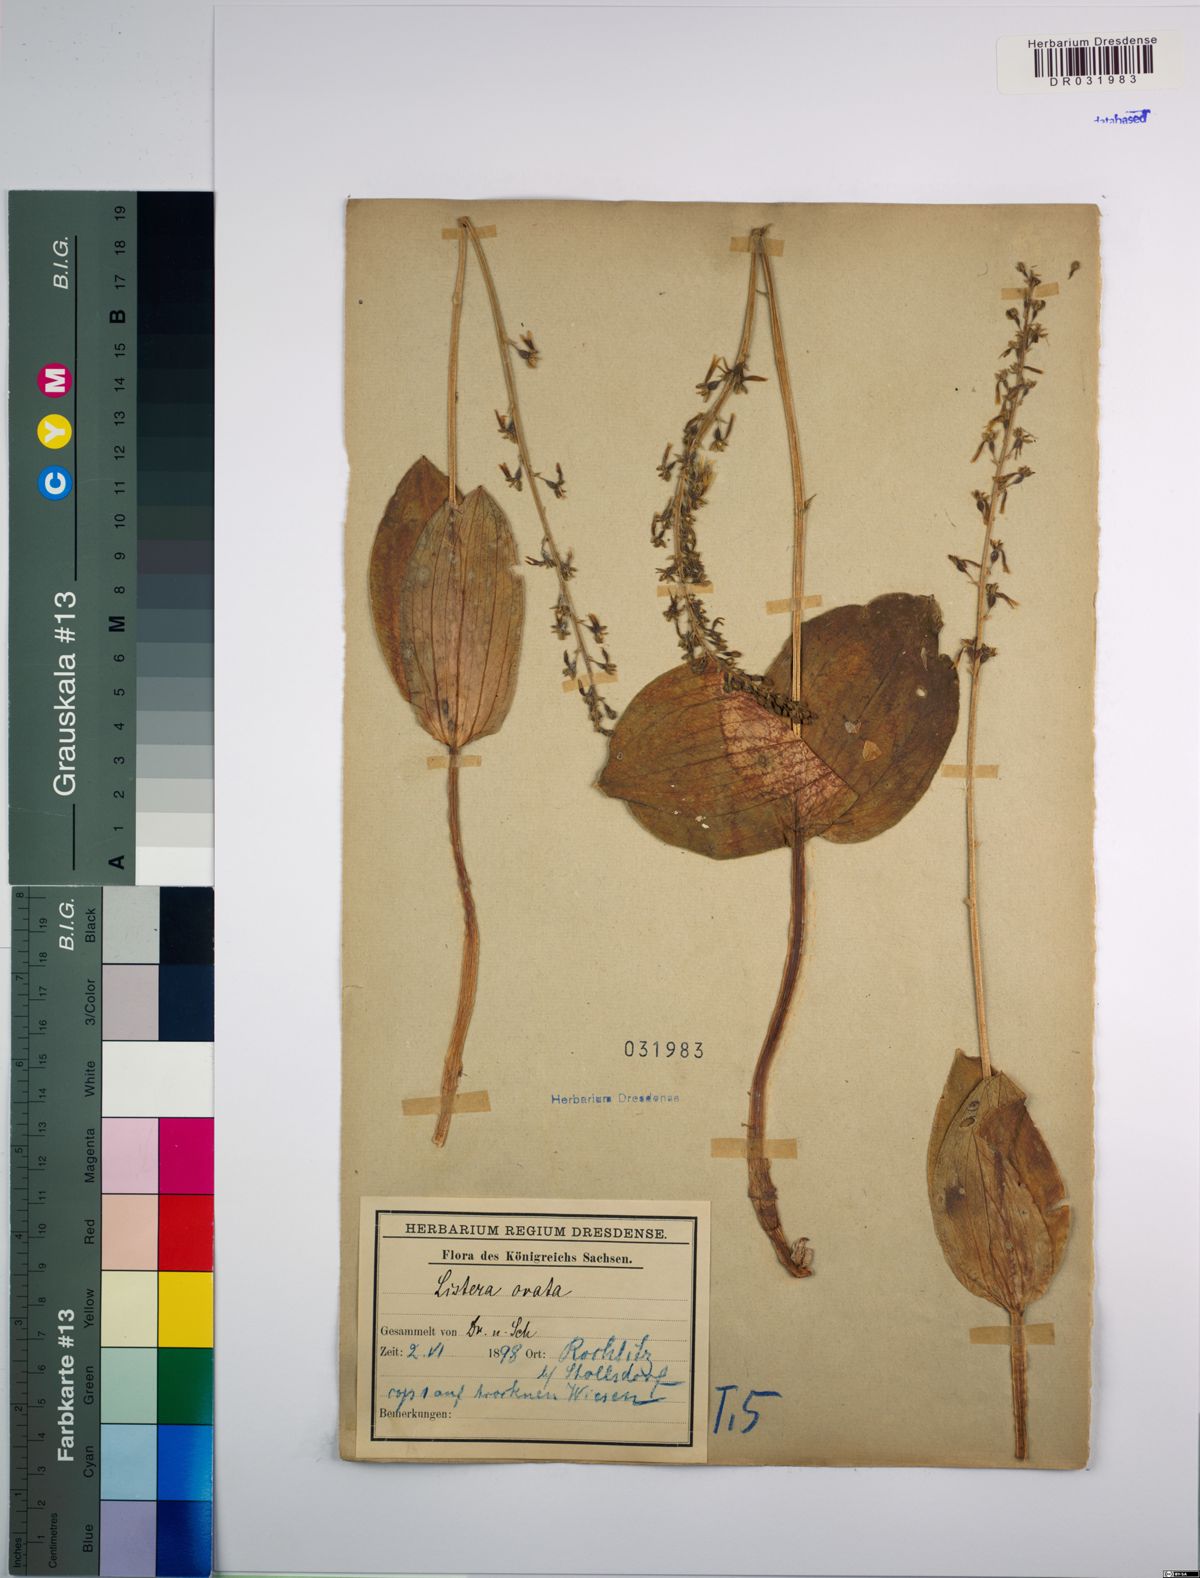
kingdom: Plantae
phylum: Tracheophyta
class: Liliopsida
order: Asparagales
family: Orchidaceae
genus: Neottia
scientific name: Neottia ovata
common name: Common twayblade
